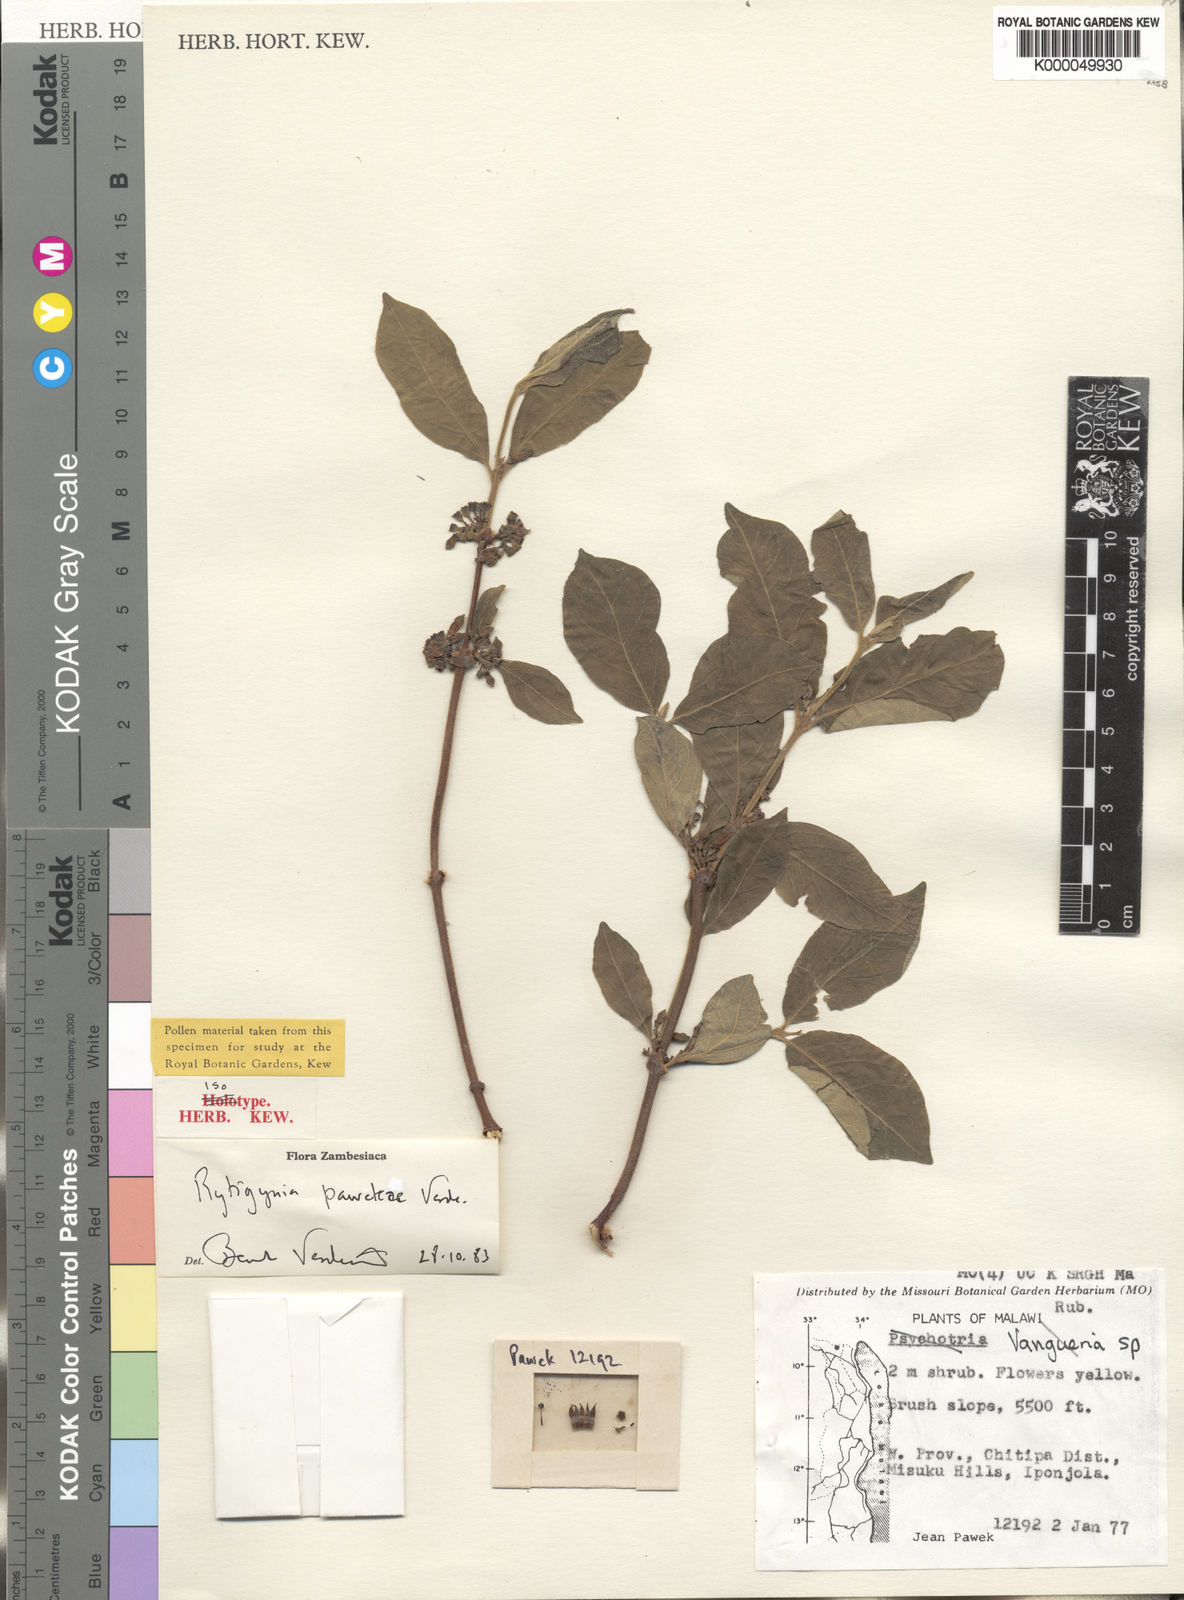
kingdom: Plantae
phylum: Tracheophyta
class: Magnoliopsida
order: Gentianales
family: Rubiaceae
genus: Rytigynia
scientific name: Rytigynia pawekiae
